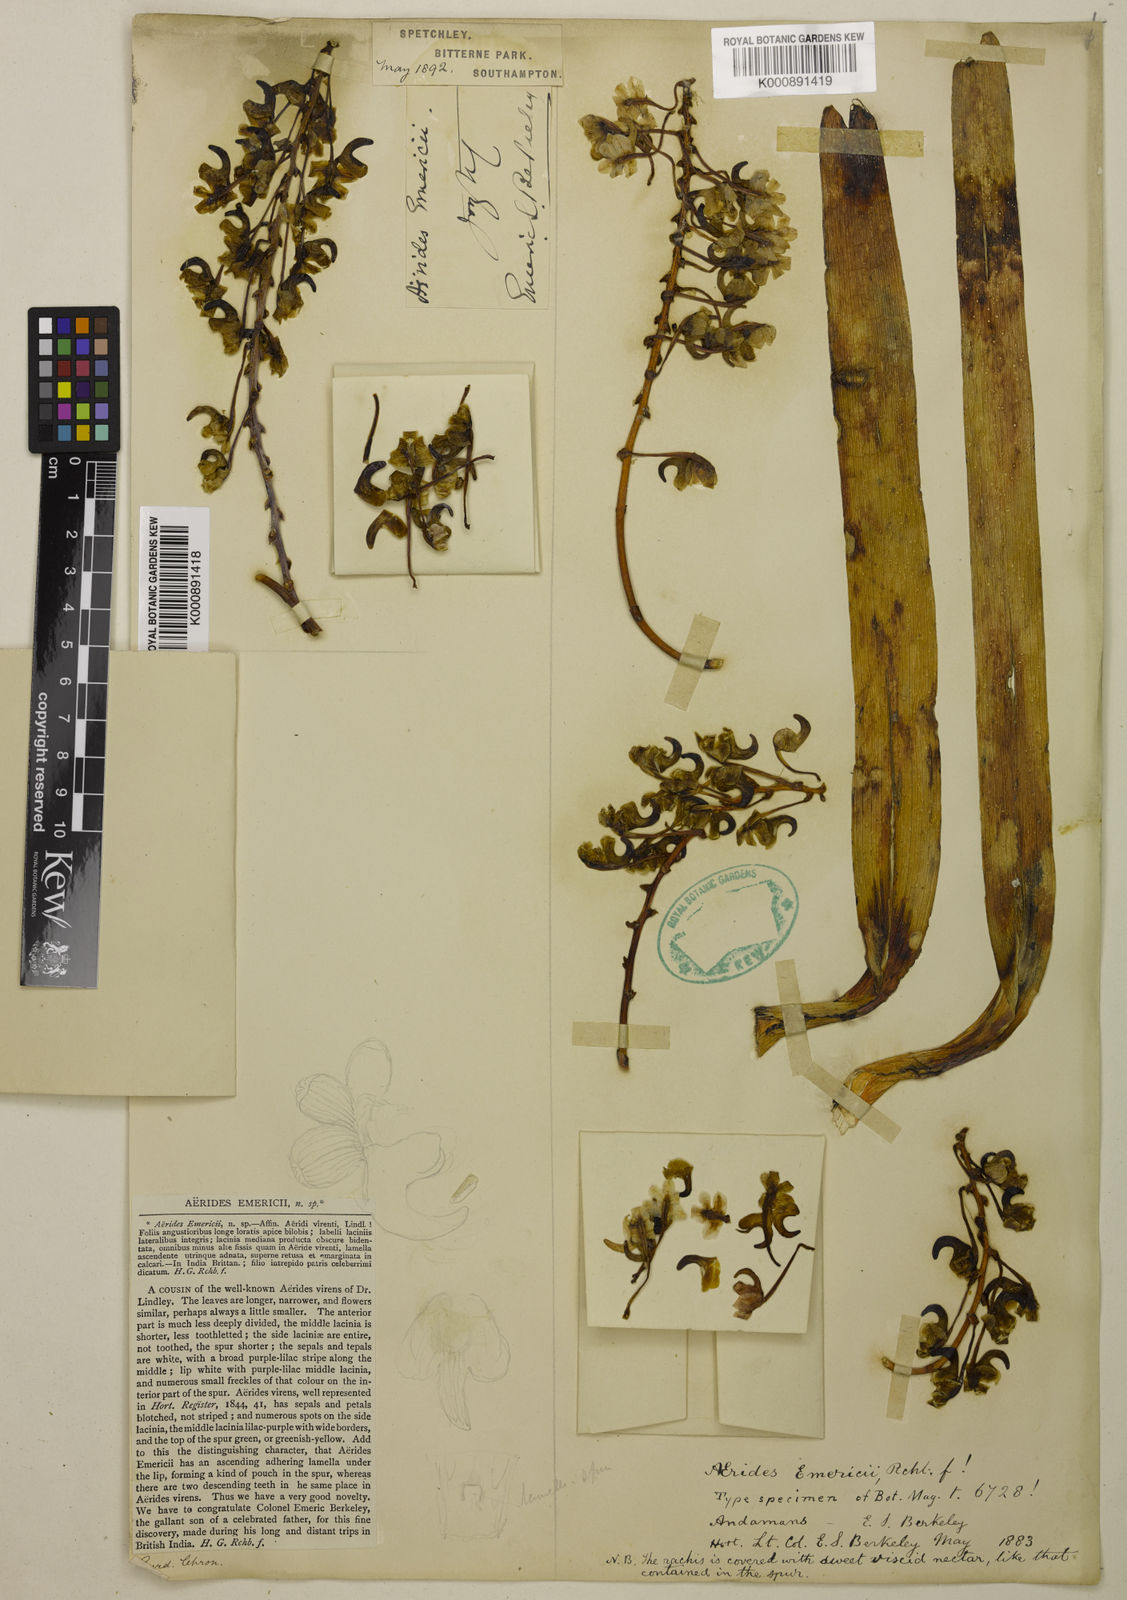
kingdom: Plantae
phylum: Tracheophyta
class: Liliopsida
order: Asparagales
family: Orchidaceae
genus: Aerides
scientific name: Aerides emericii
